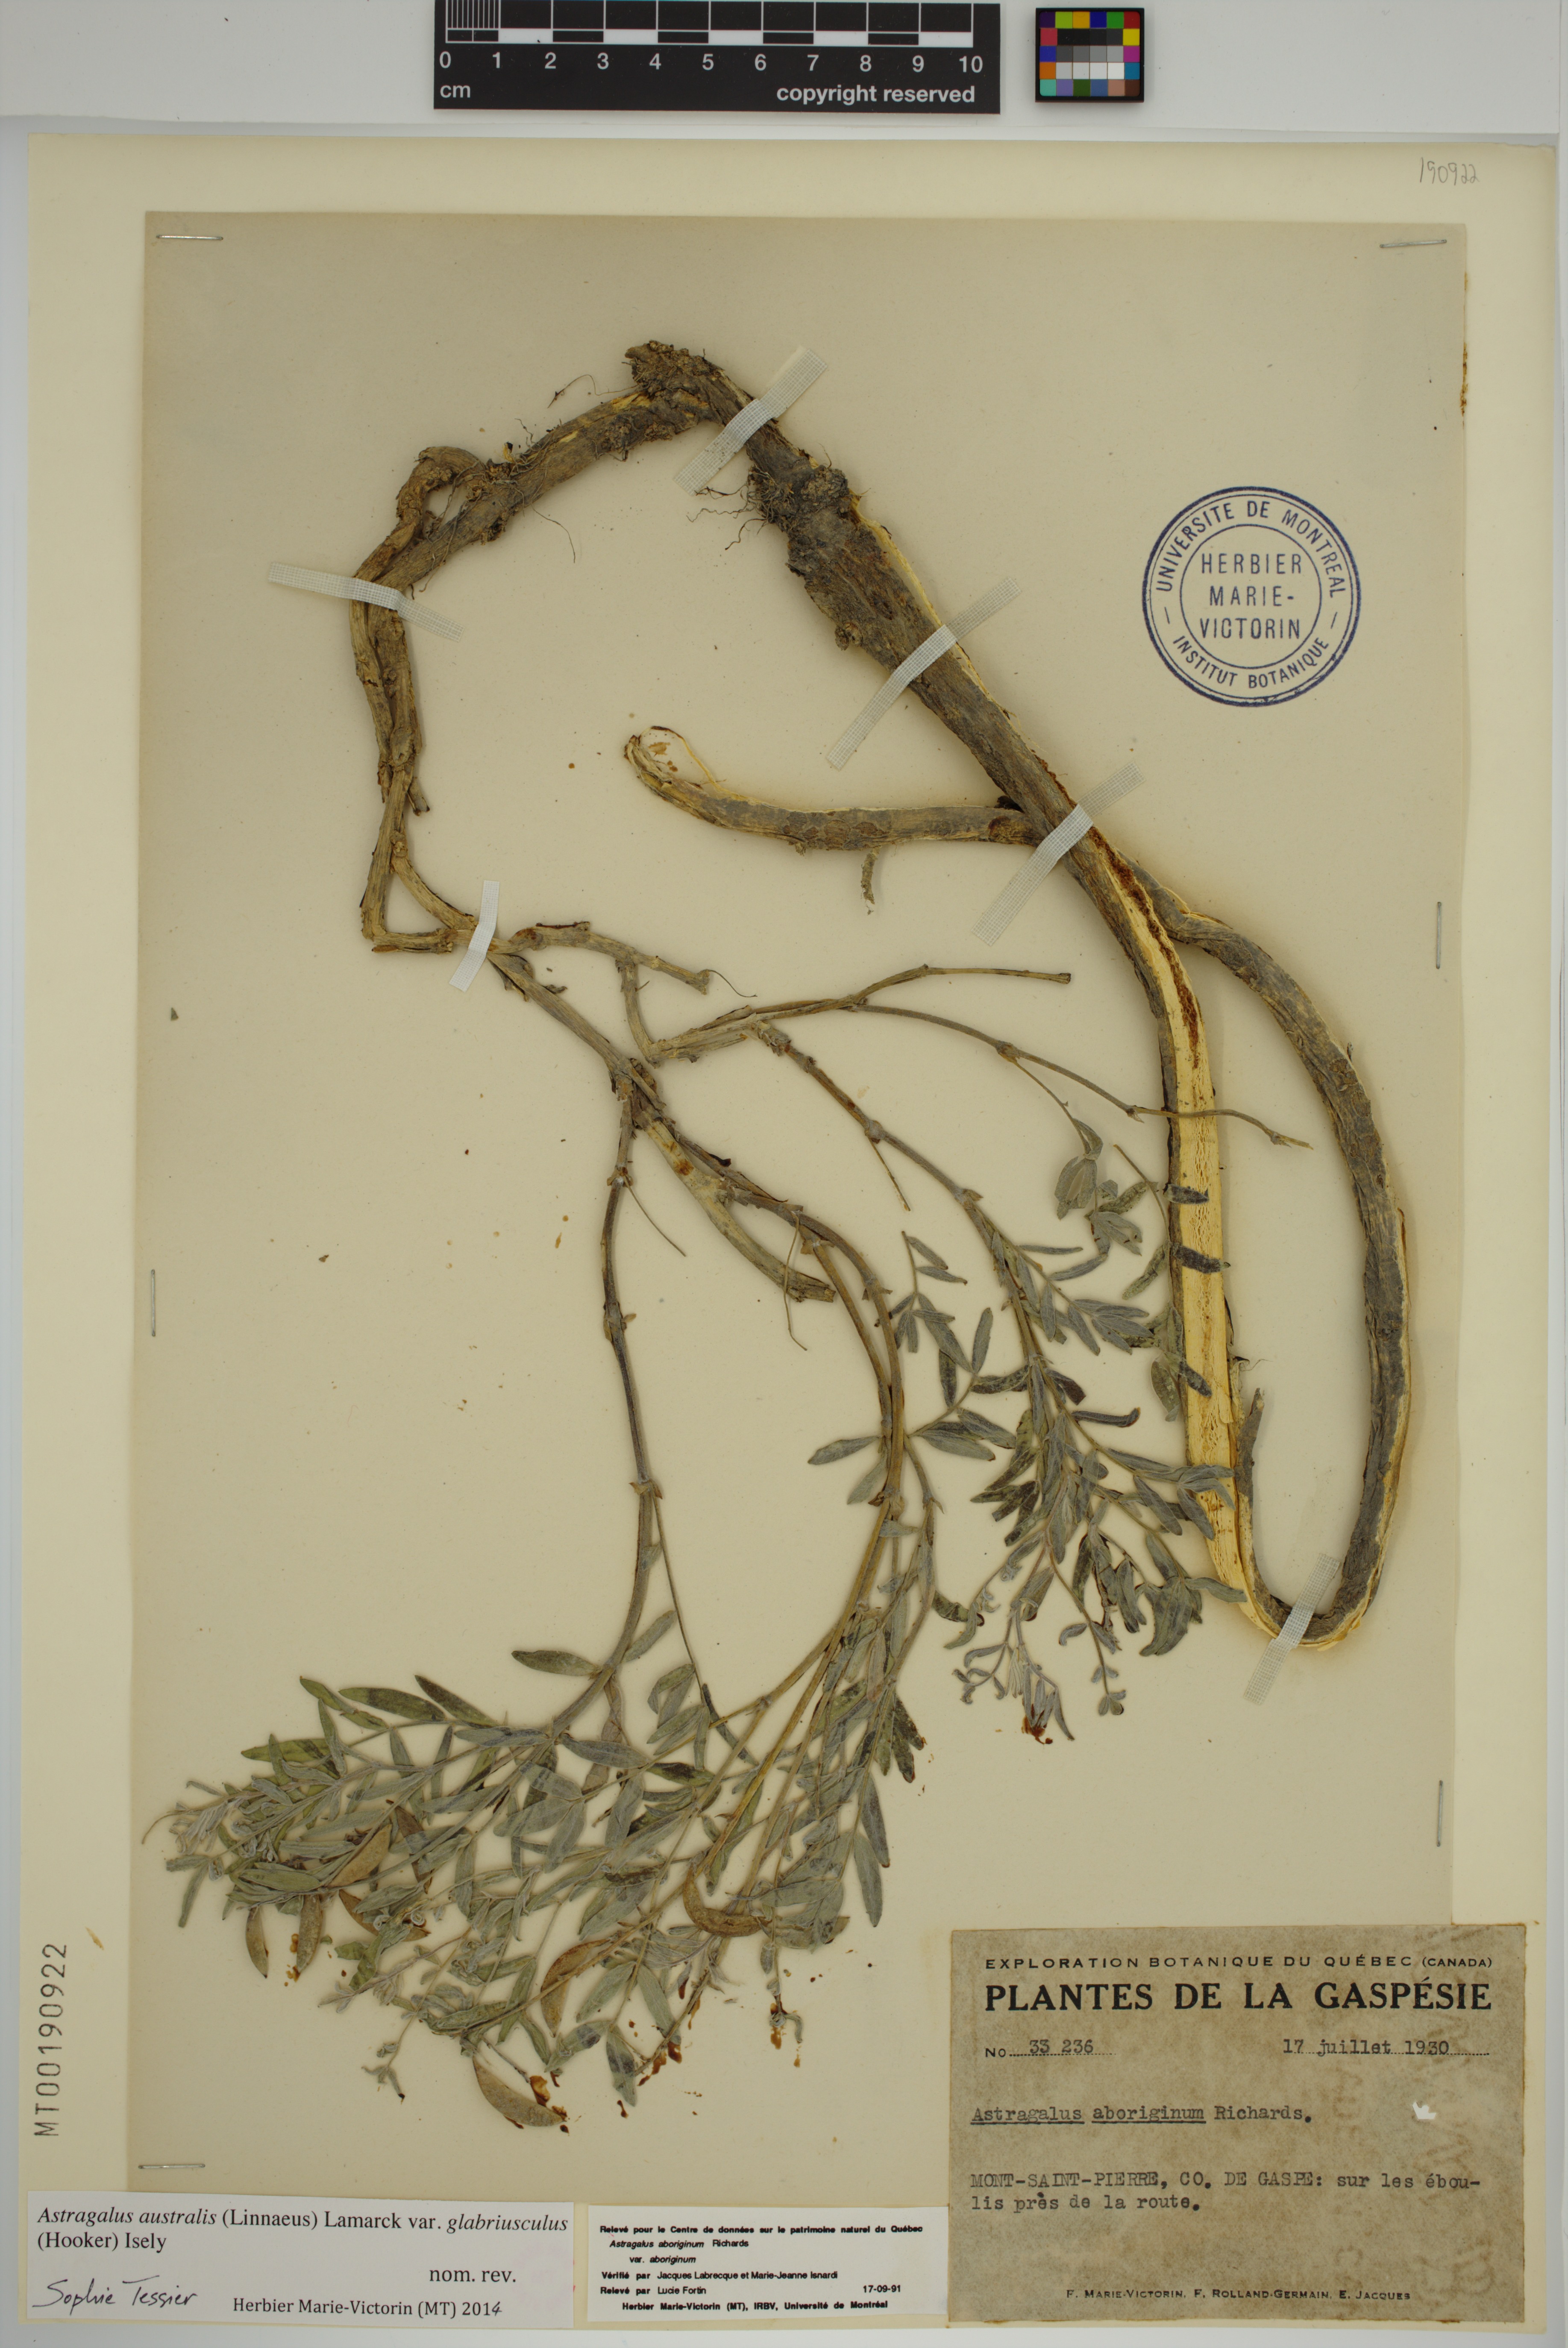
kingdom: Plantae
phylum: Tracheophyta
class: Magnoliopsida
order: Fabales
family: Fabaceae
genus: Astragalus
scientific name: Astragalus aboriginorum
